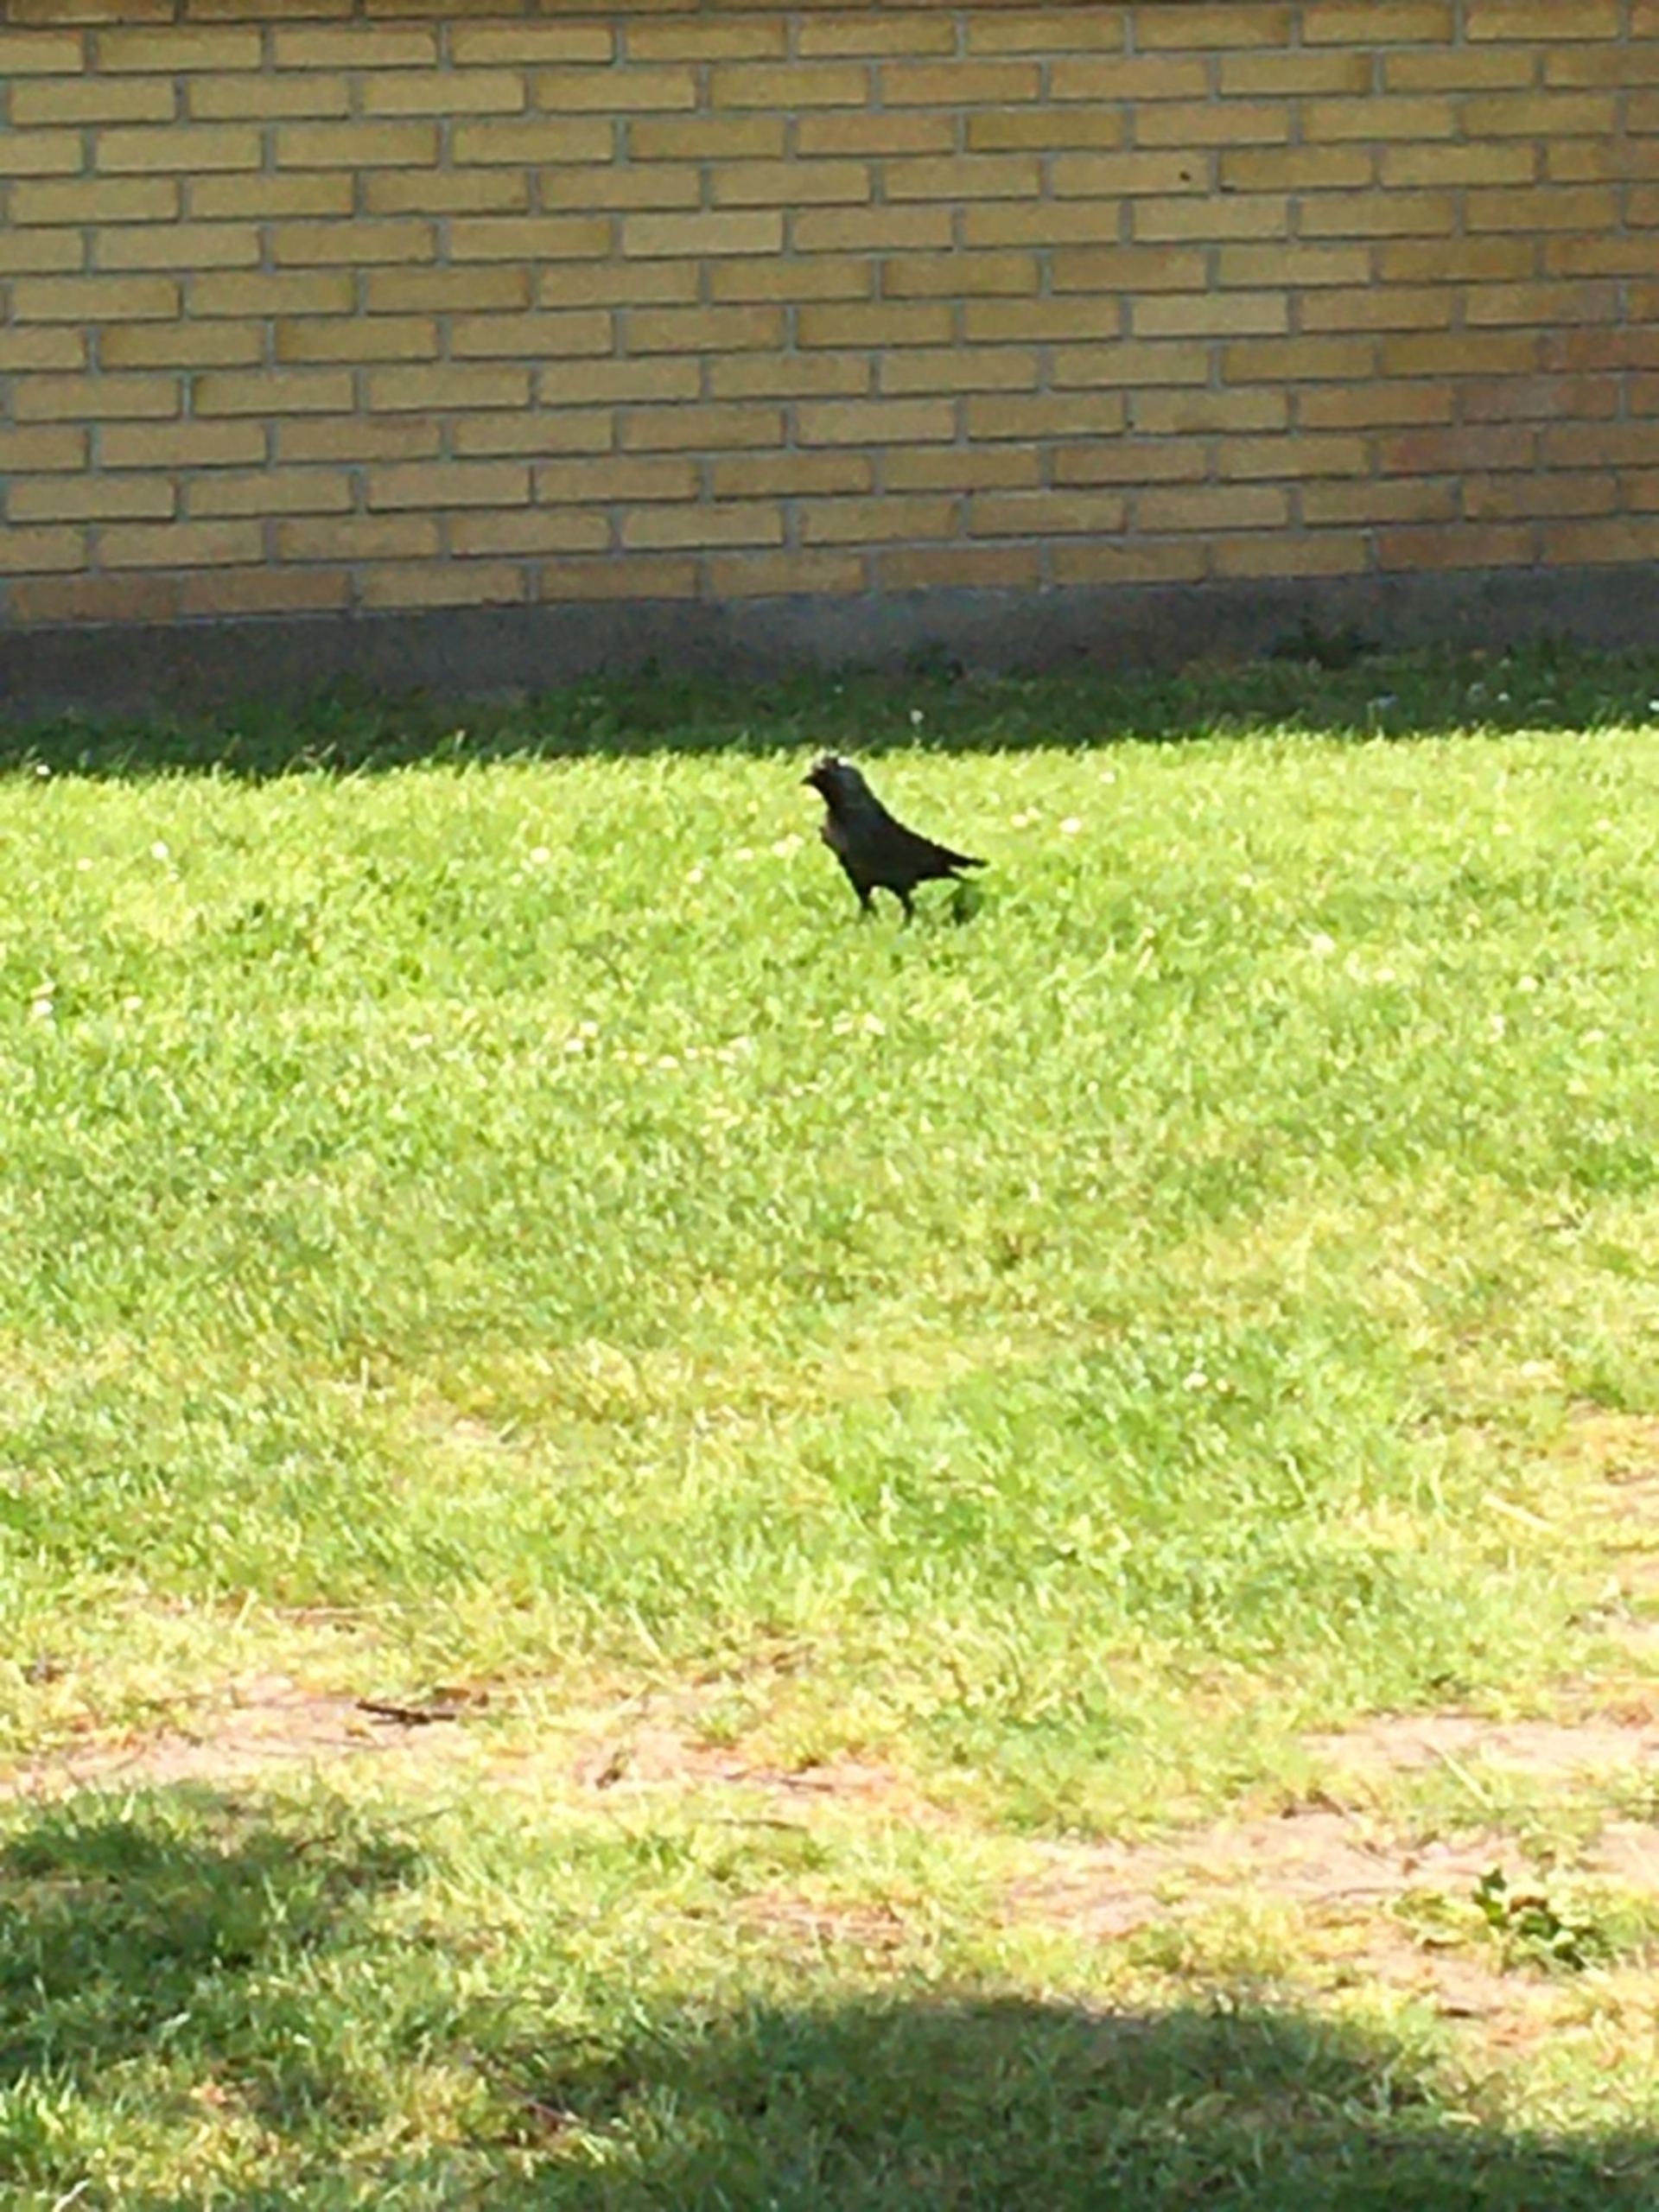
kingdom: Animalia
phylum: Chordata
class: Aves
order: Passeriformes
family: Corvidae
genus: Coloeus
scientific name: Coloeus monedula
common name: Allike
